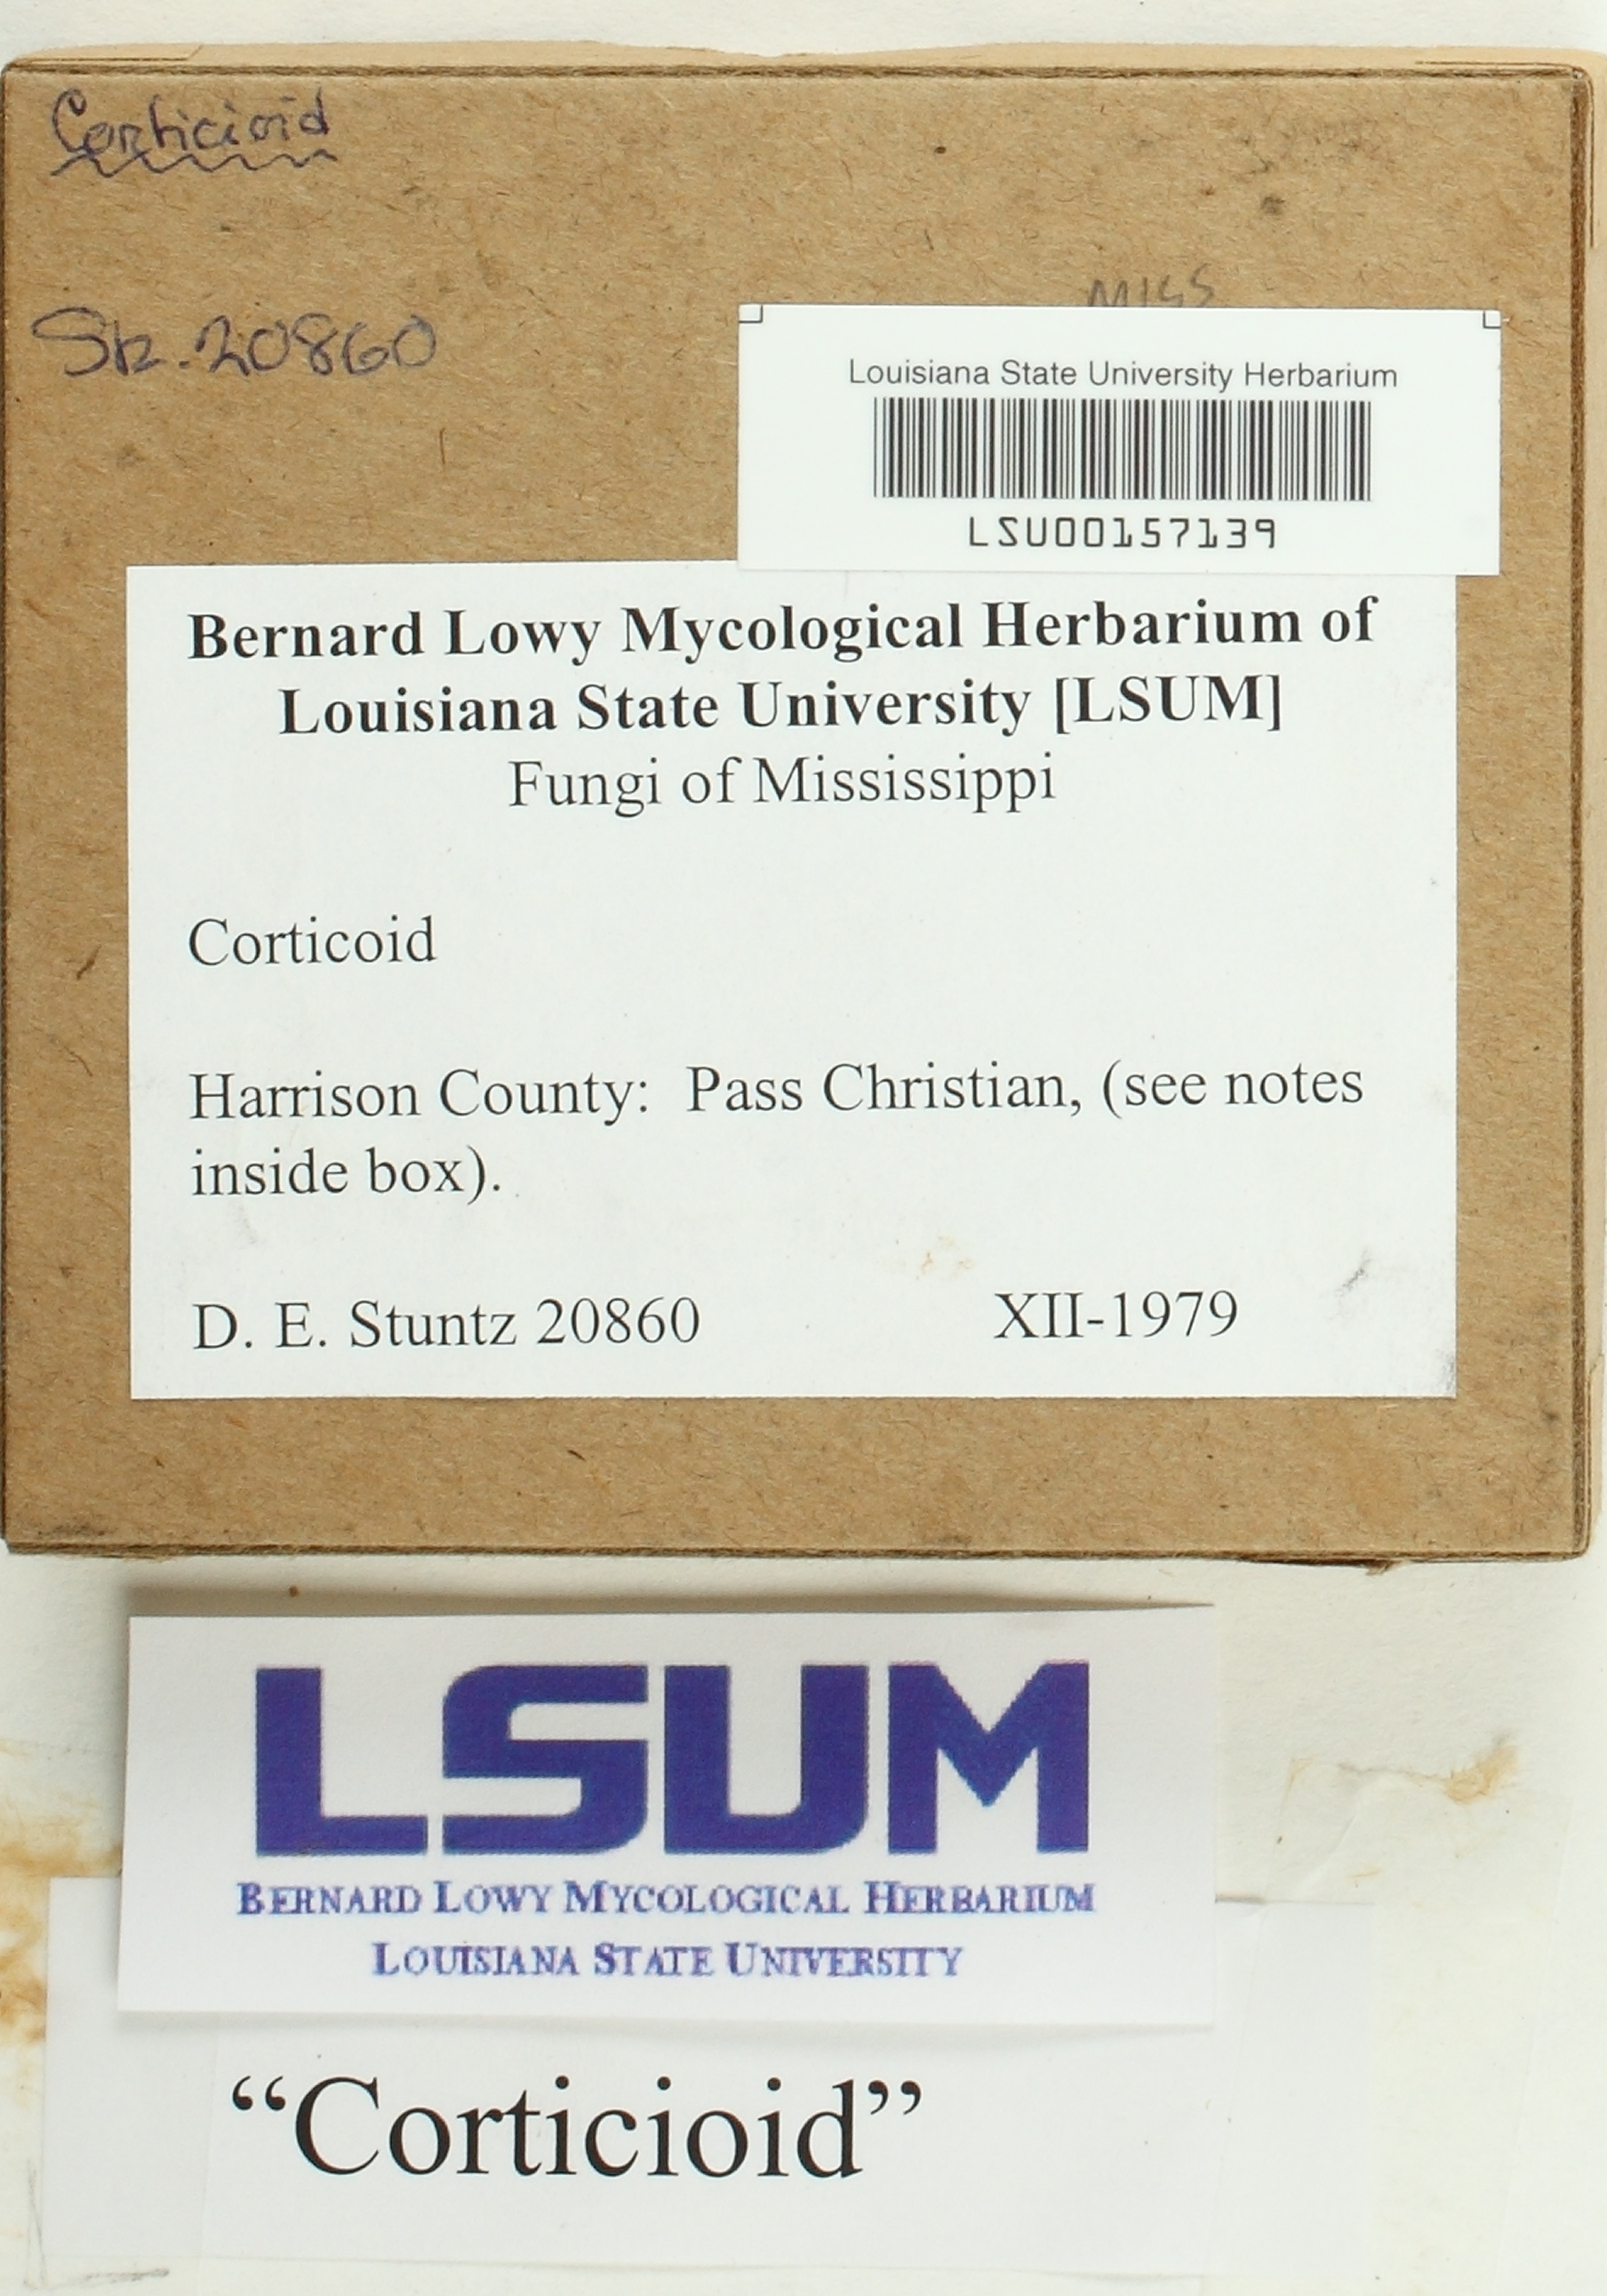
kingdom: Fungi
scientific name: Fungi
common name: Fungi
